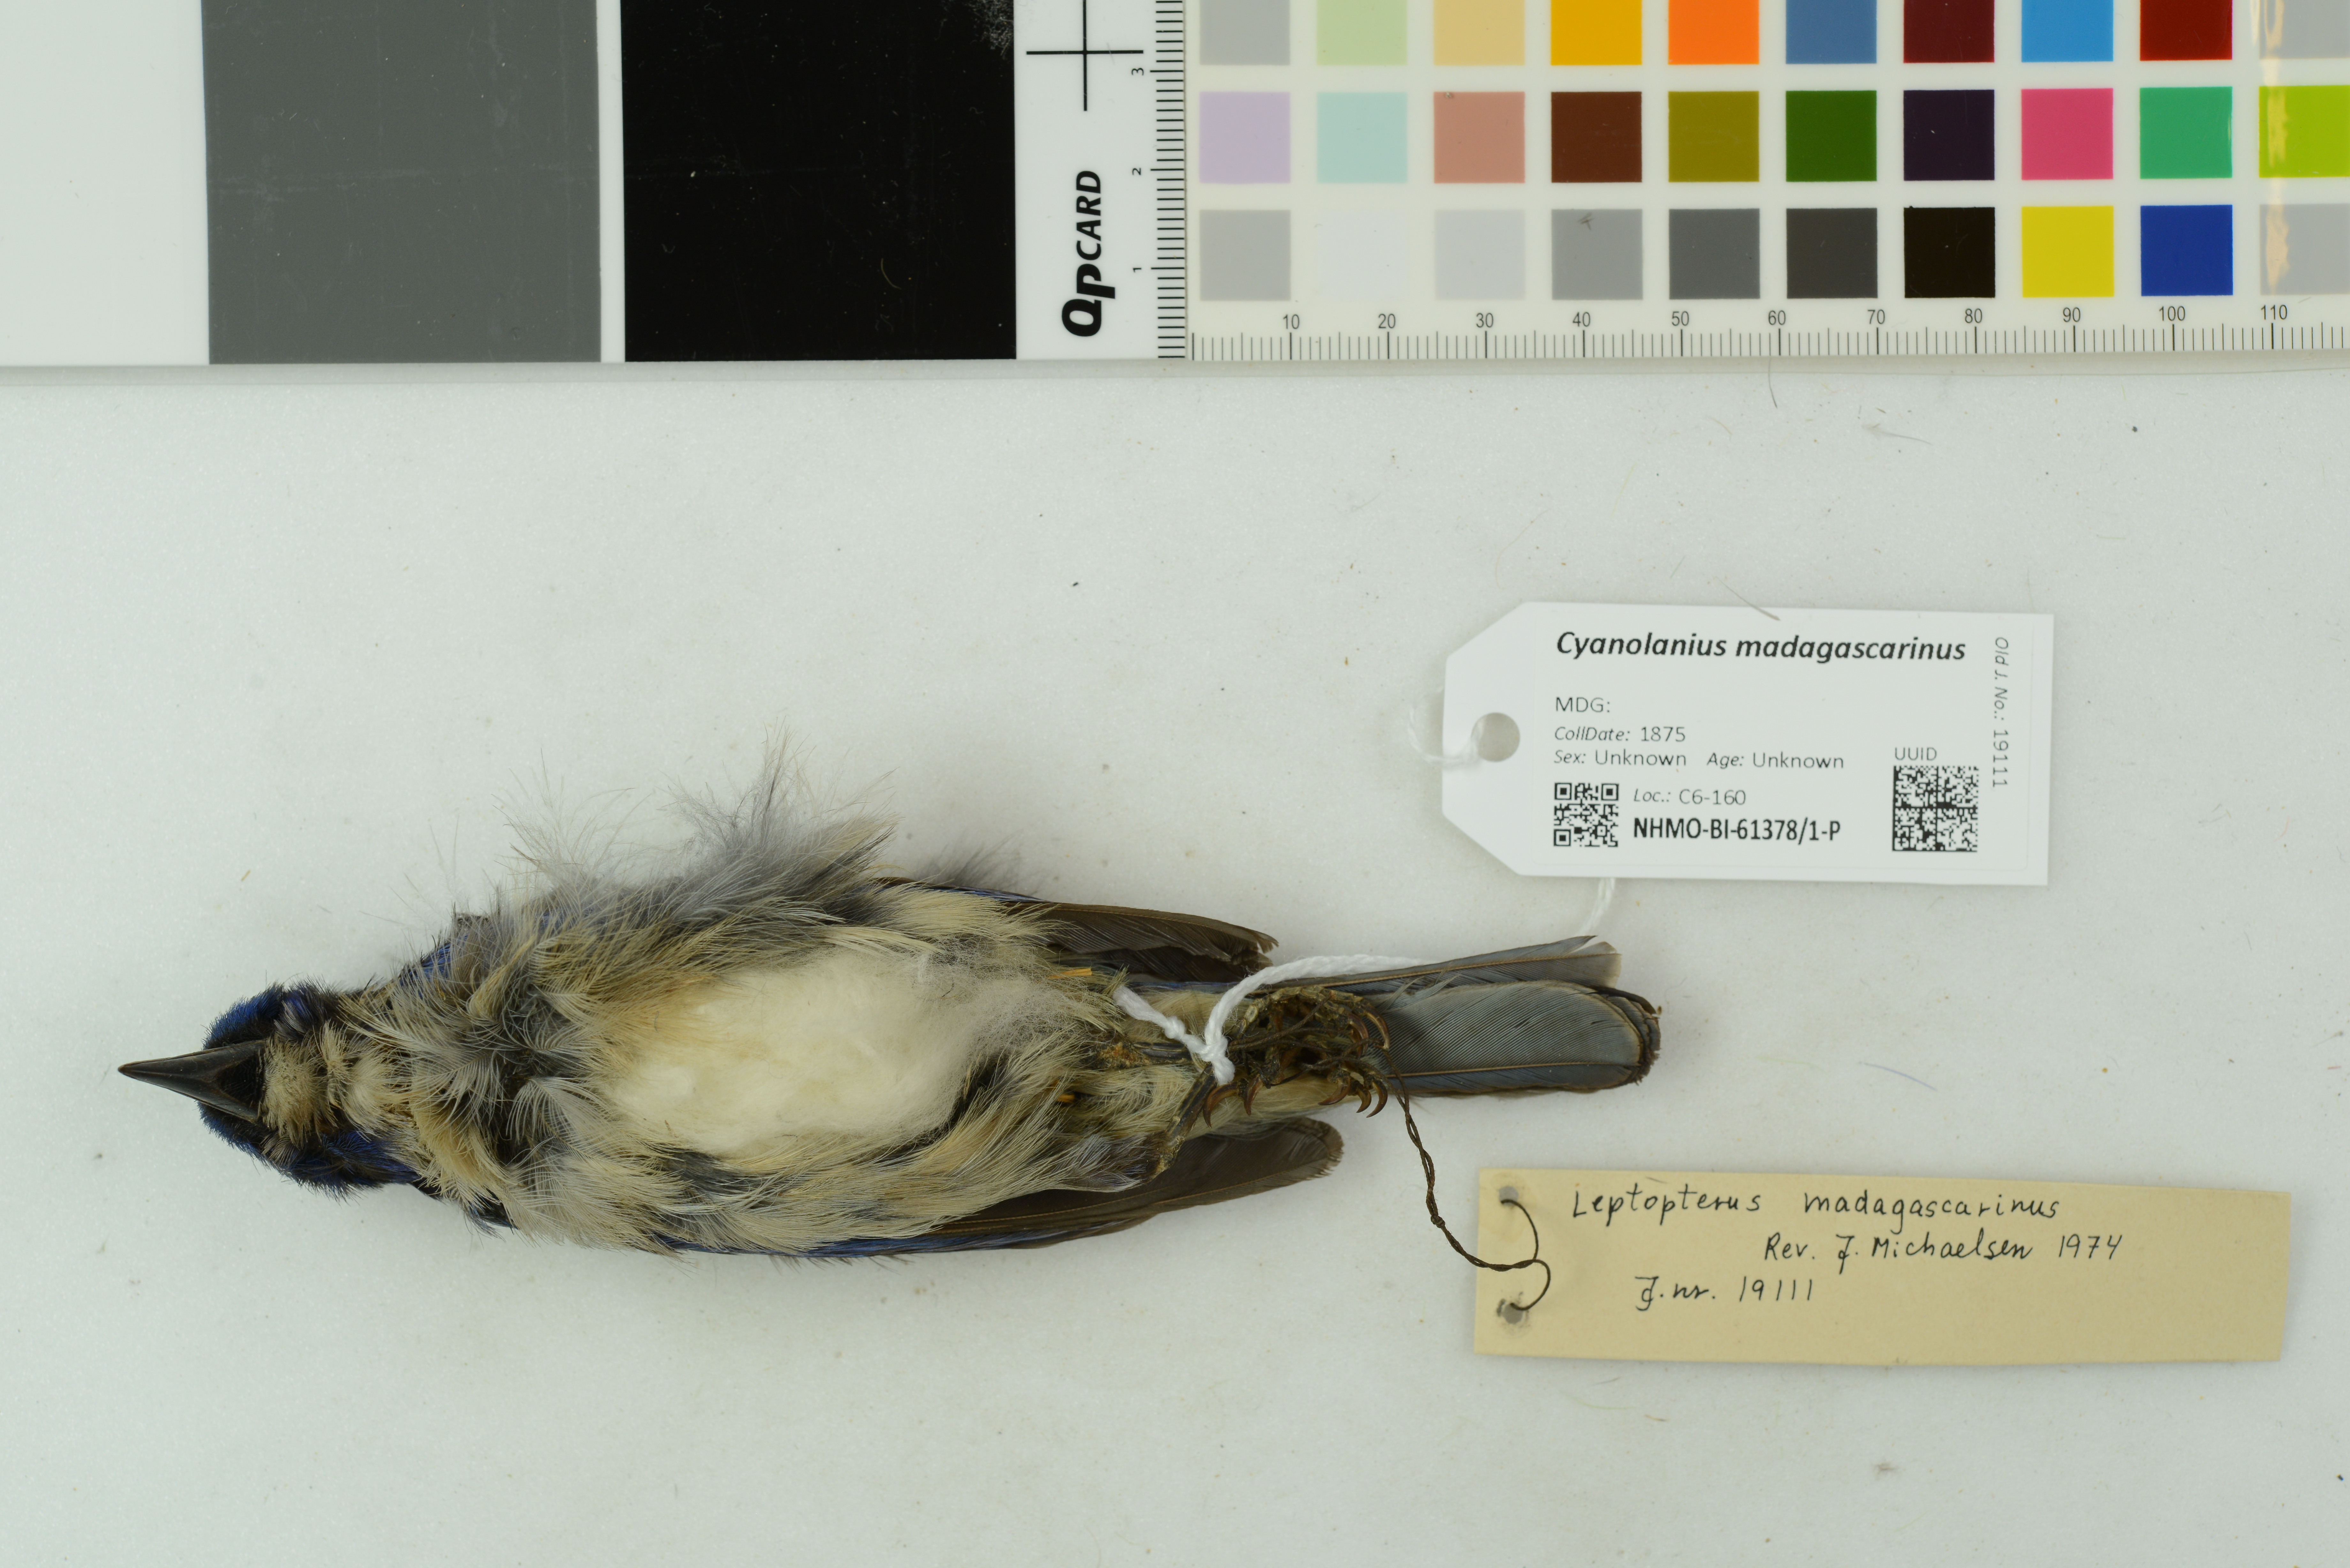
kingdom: Animalia
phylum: Chordata
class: Aves
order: Passeriformes
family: Vangidae
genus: Cyanolanius
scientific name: Cyanolanius madagascarinus
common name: Blue vanga
